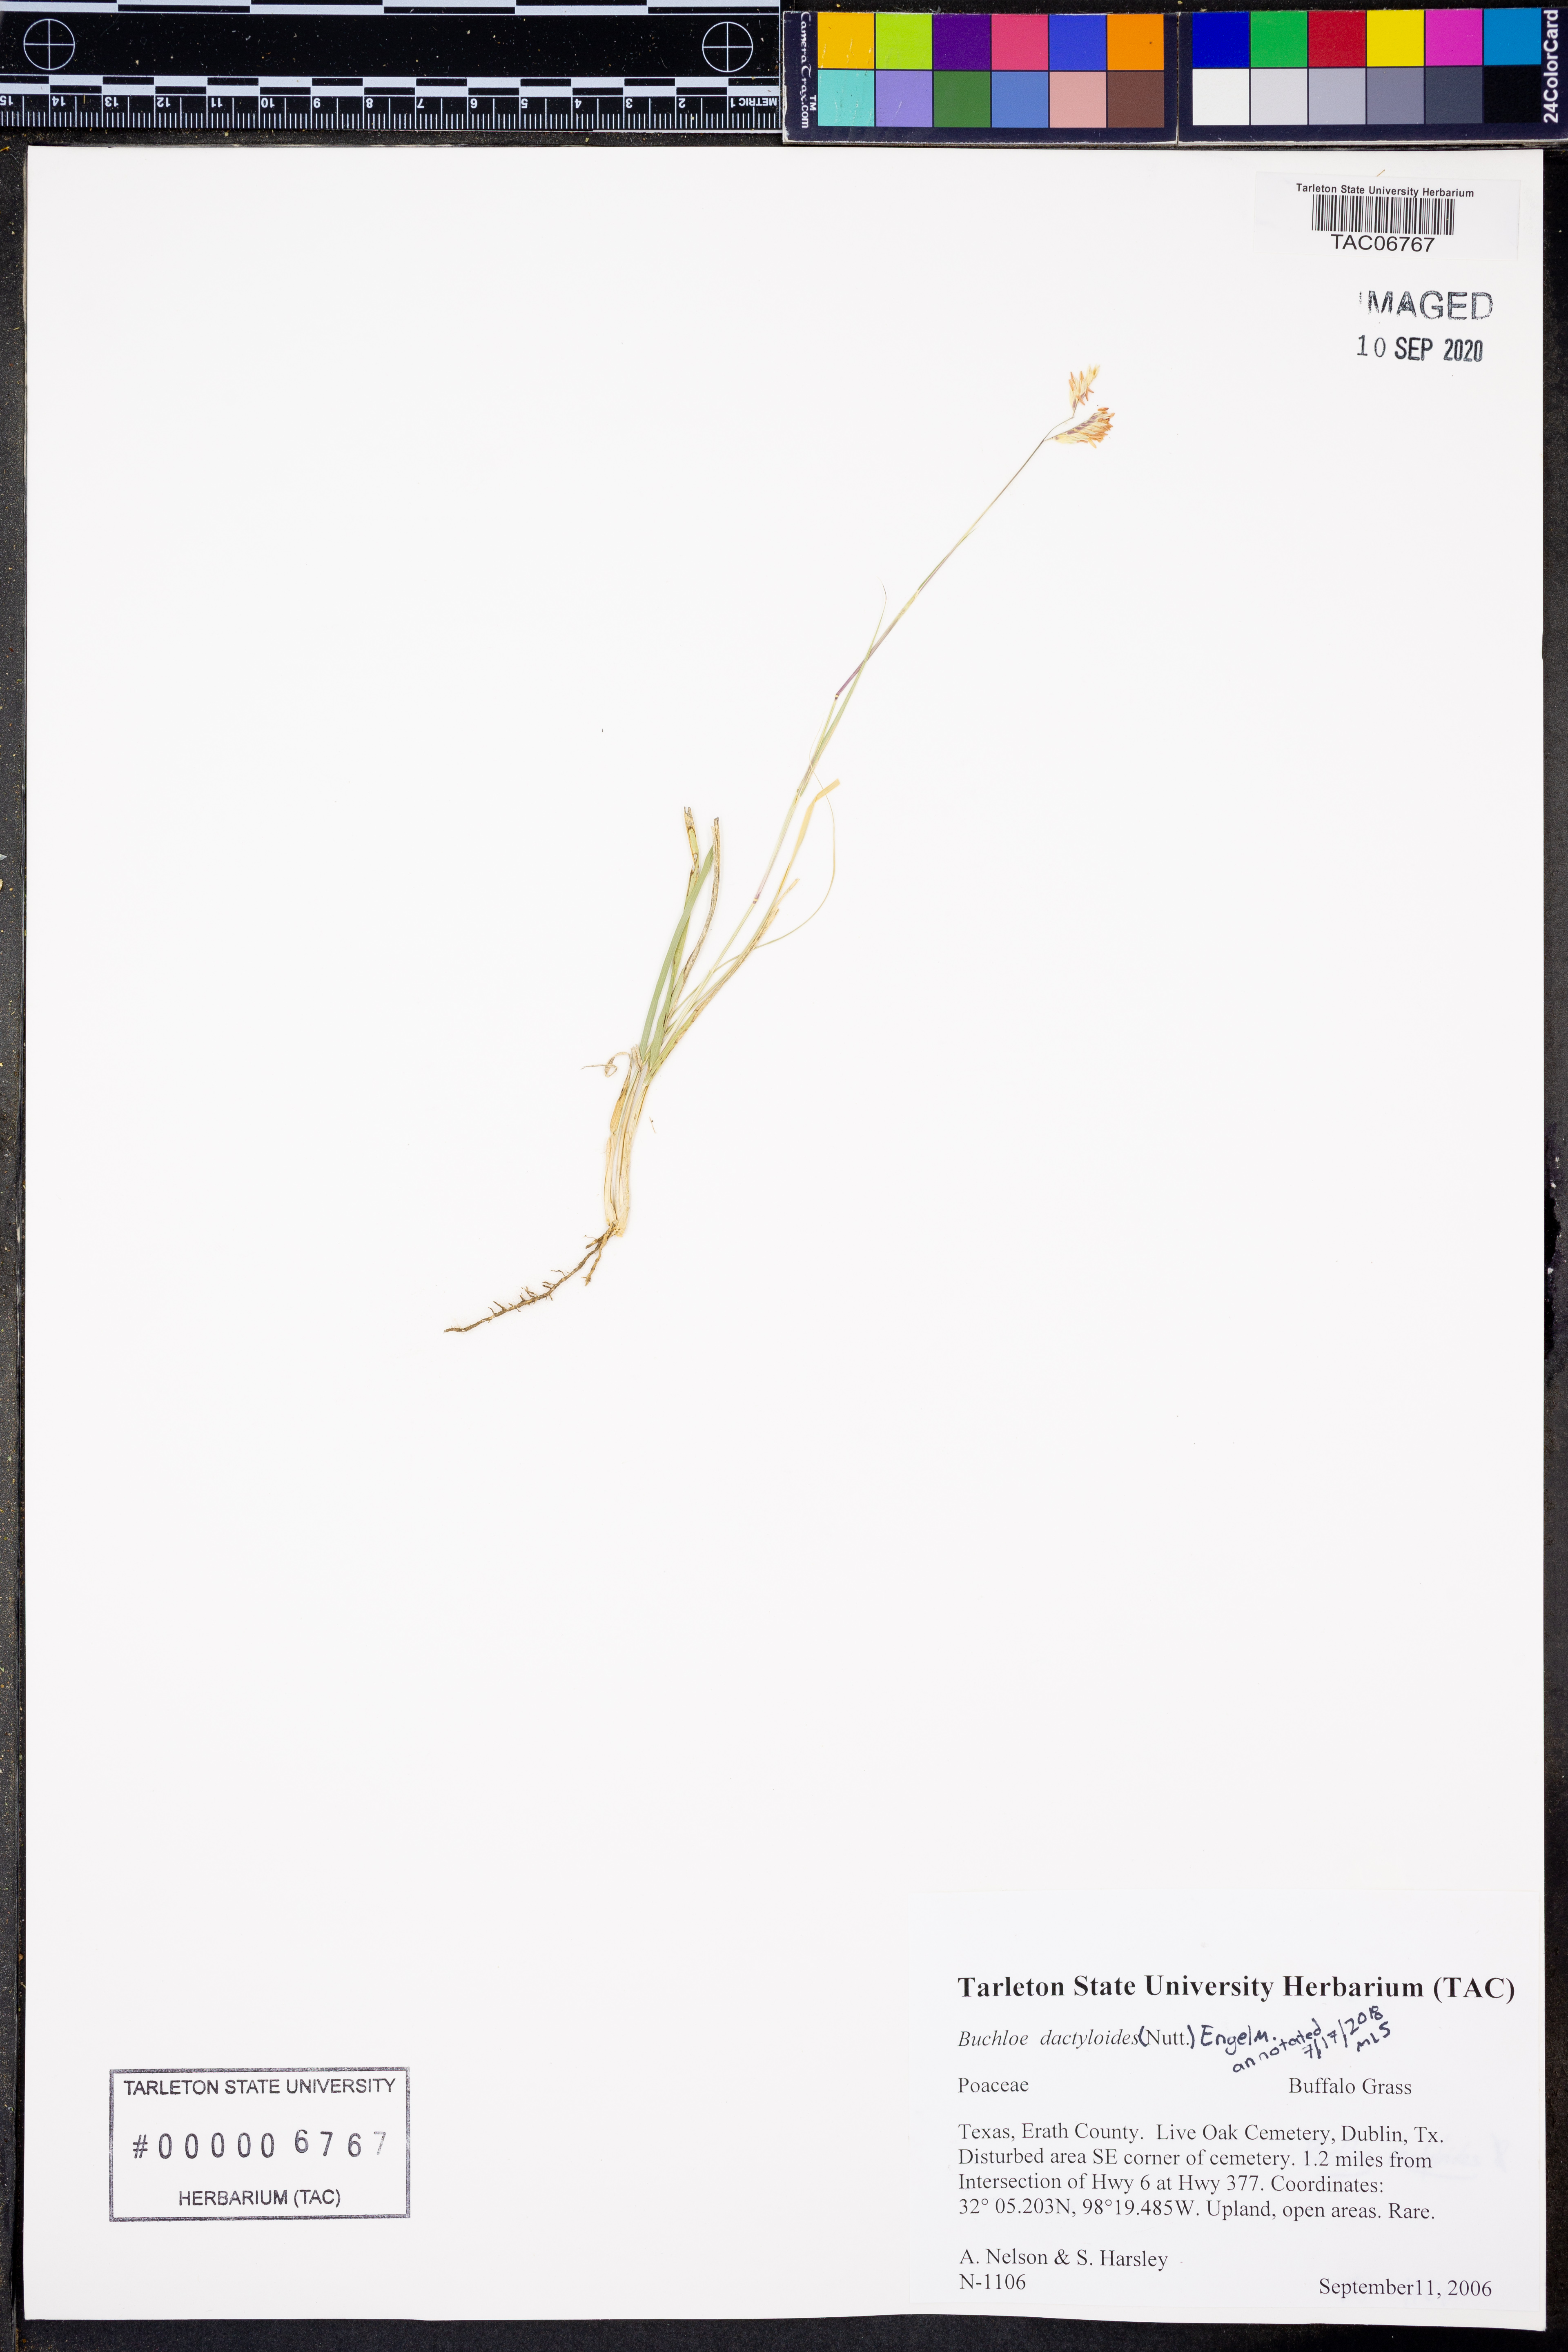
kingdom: Plantae
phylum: Tracheophyta
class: Liliopsida
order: Poales
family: Poaceae
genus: Bouteloua
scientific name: Bouteloua dactyloides
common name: Buffalo grass
